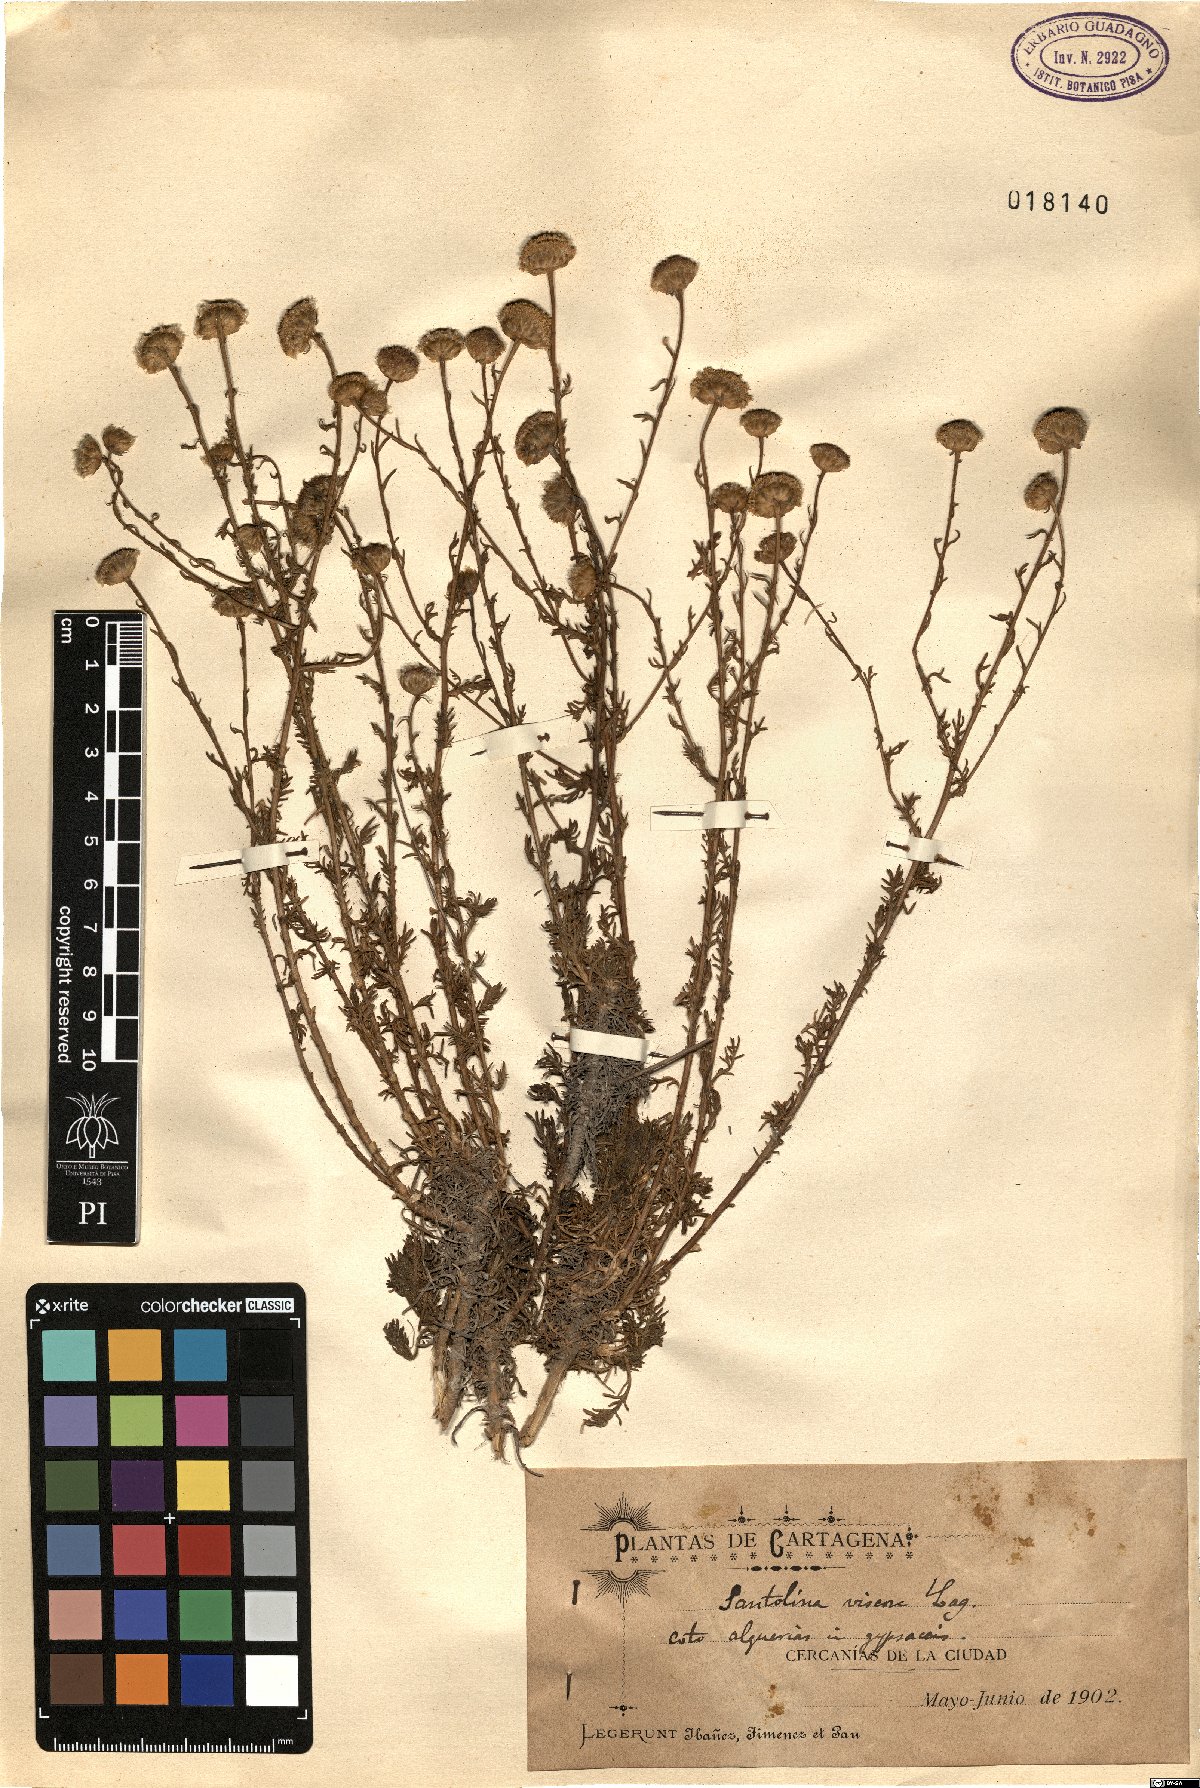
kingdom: Plantae
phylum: Tracheophyta
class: Magnoliopsida
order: Asterales
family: Asteraceae
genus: Santolina
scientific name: Santolina viscosa
